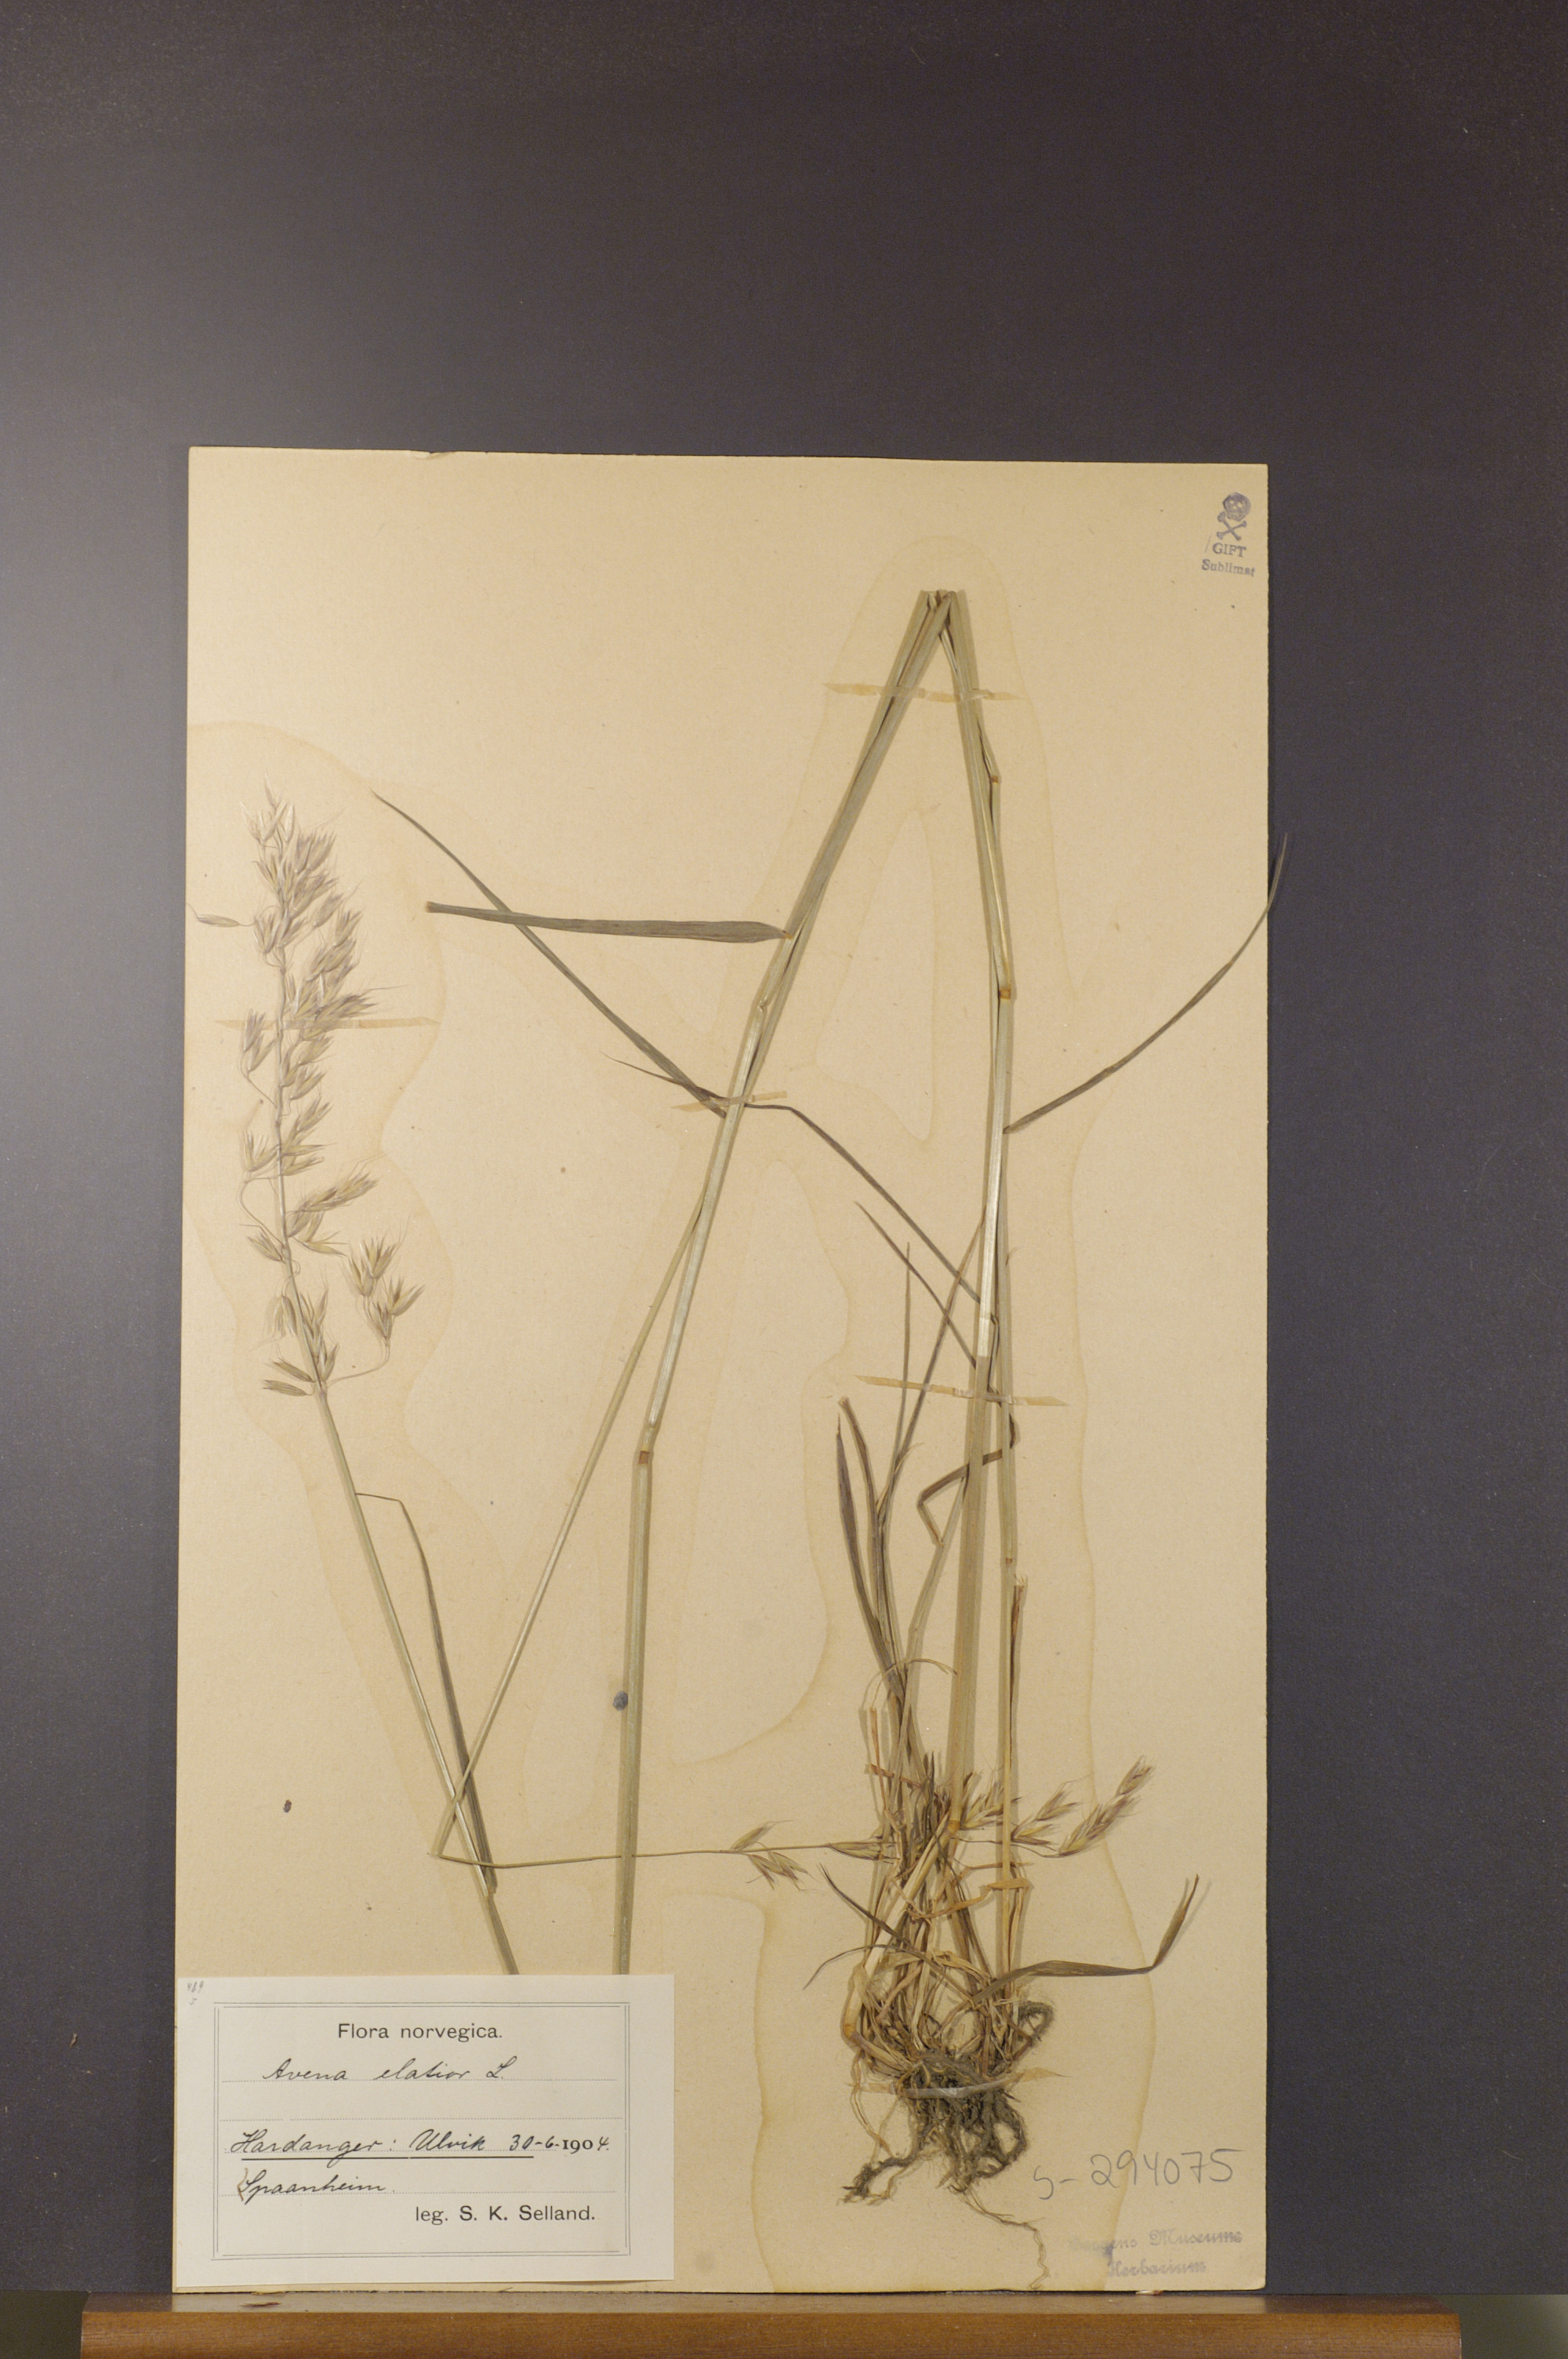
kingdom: Plantae
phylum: Tracheophyta
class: Liliopsida
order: Poales
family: Poaceae
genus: Arrhenatherum
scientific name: Arrhenatherum elatius
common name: Tall oatgrass
